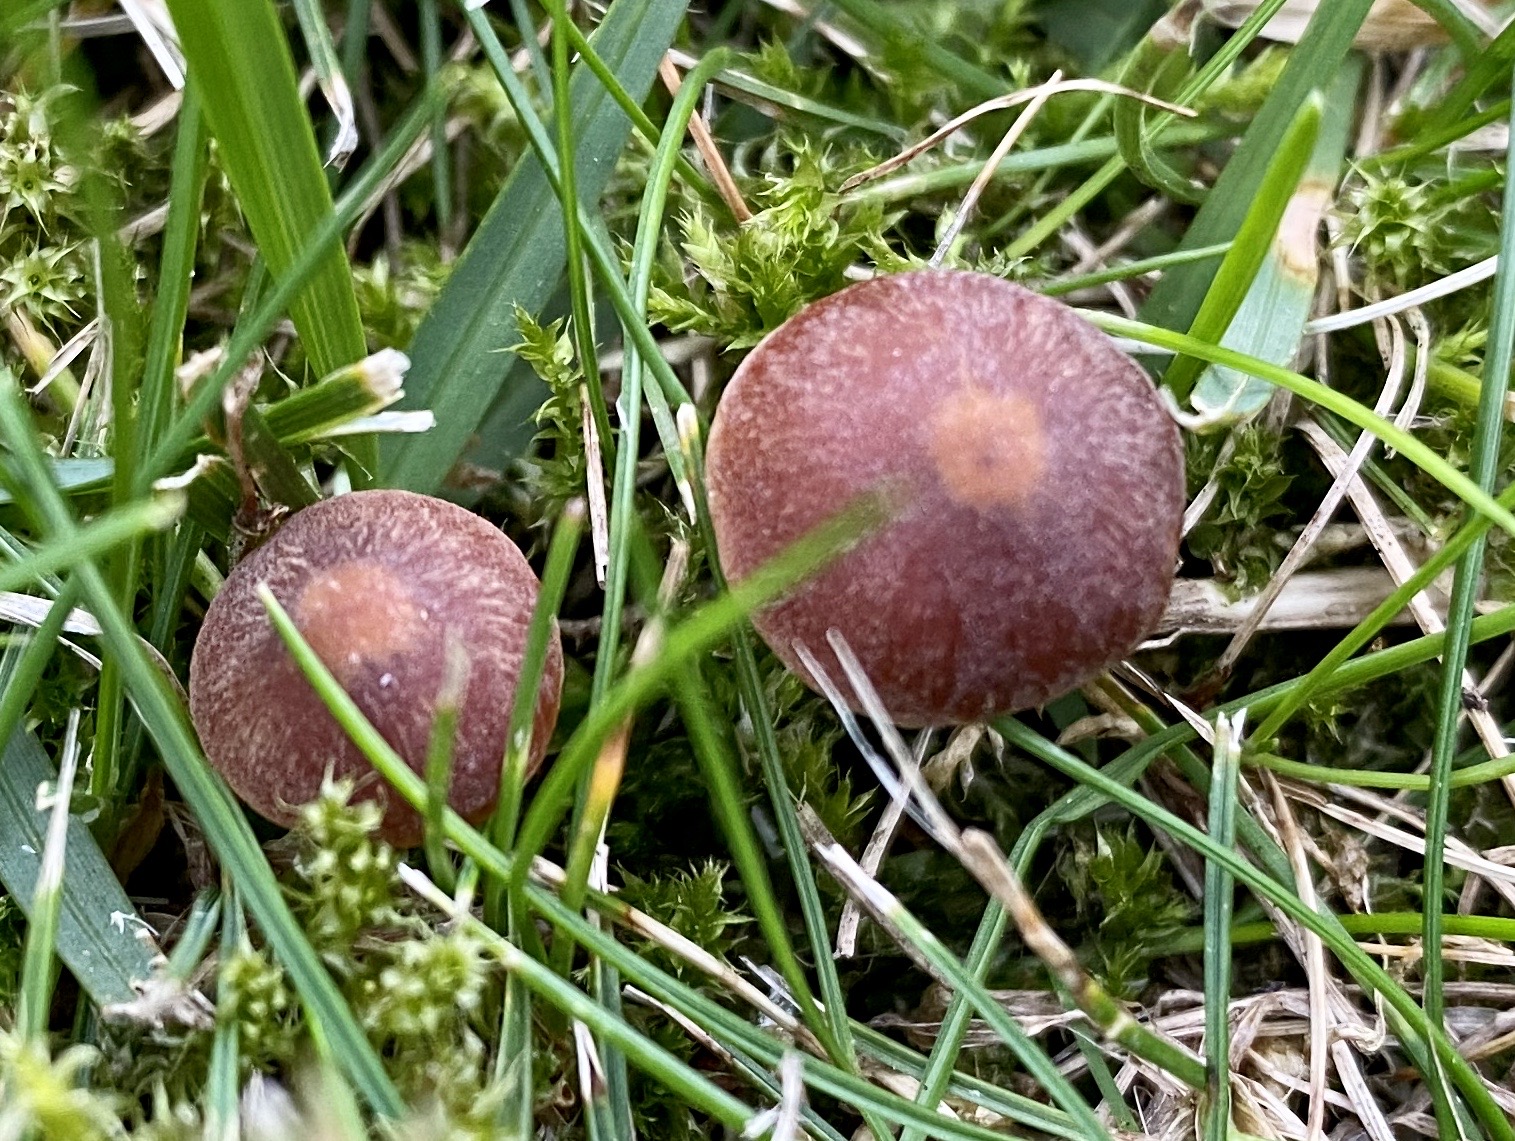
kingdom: Fungi
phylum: Basidiomycota
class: Agaricomycetes
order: Agaricales
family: Bolbitiaceae
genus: Panaeolina
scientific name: Panaeolina foenisecii
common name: høslætsvamp
